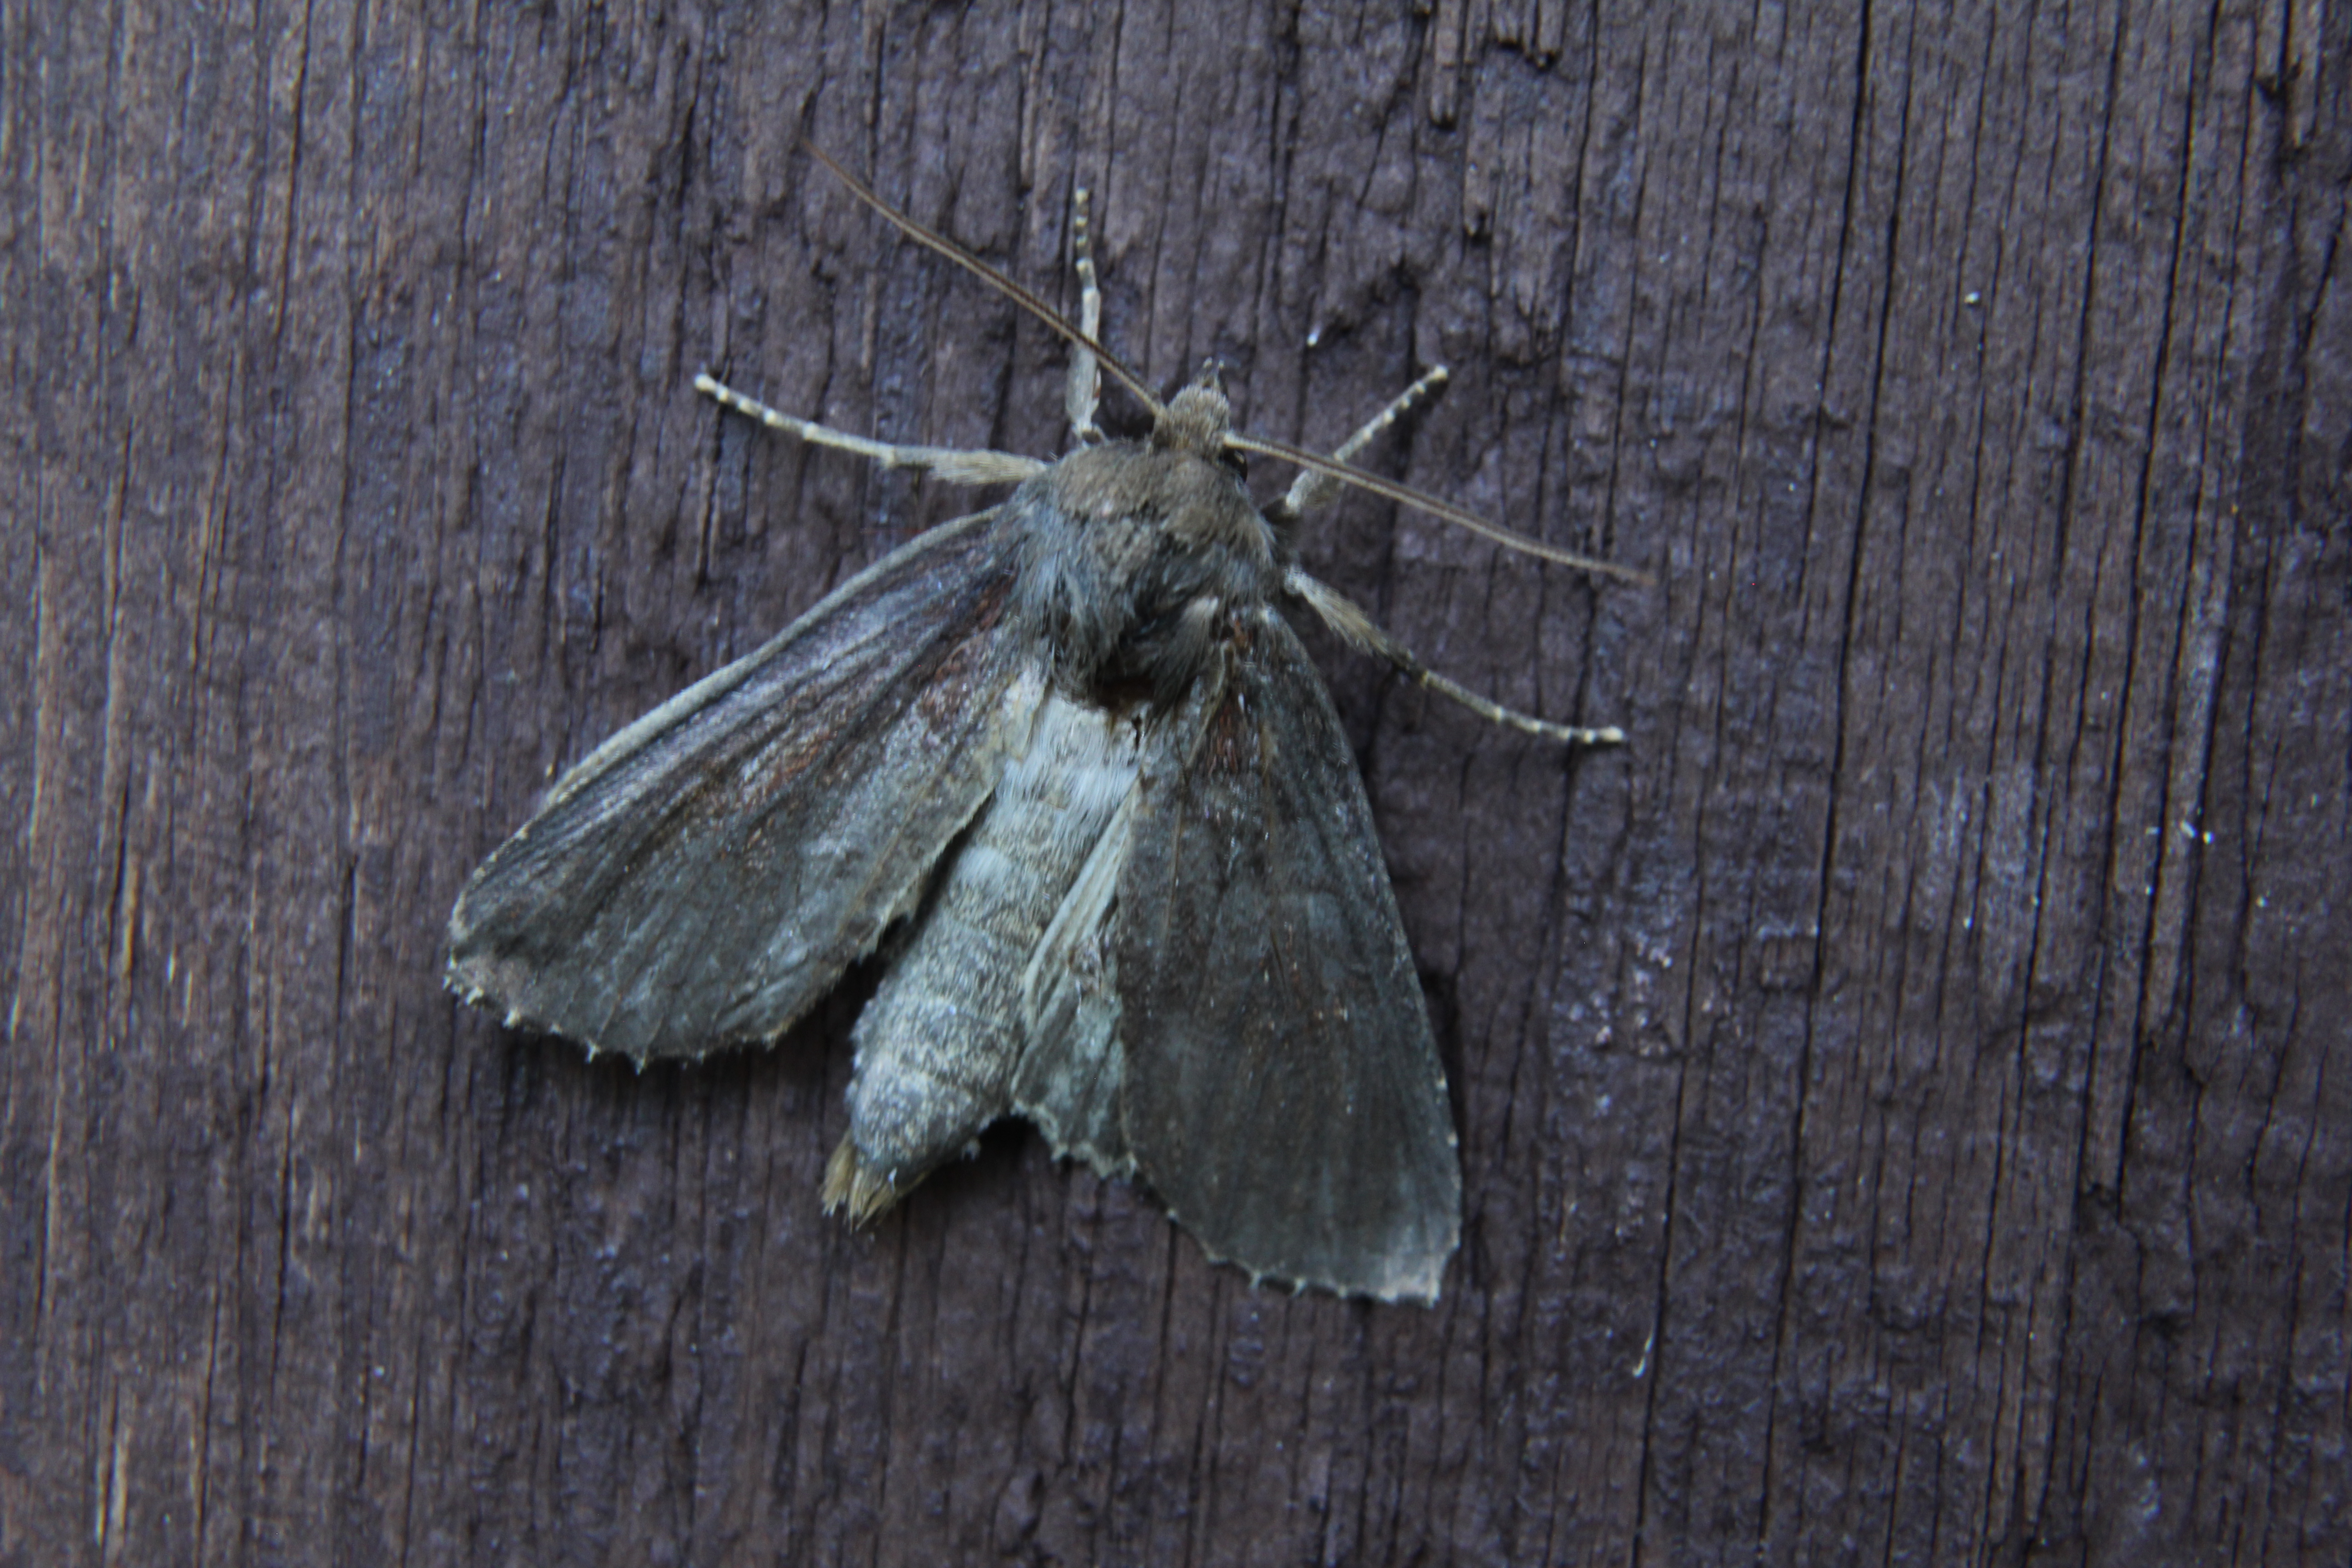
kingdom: Animalia
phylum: Arthropoda
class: Insecta
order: Lepidoptera
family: Noctuidae
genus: Nonagria
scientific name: Nonagria typhae
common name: Bulrush wainscot
